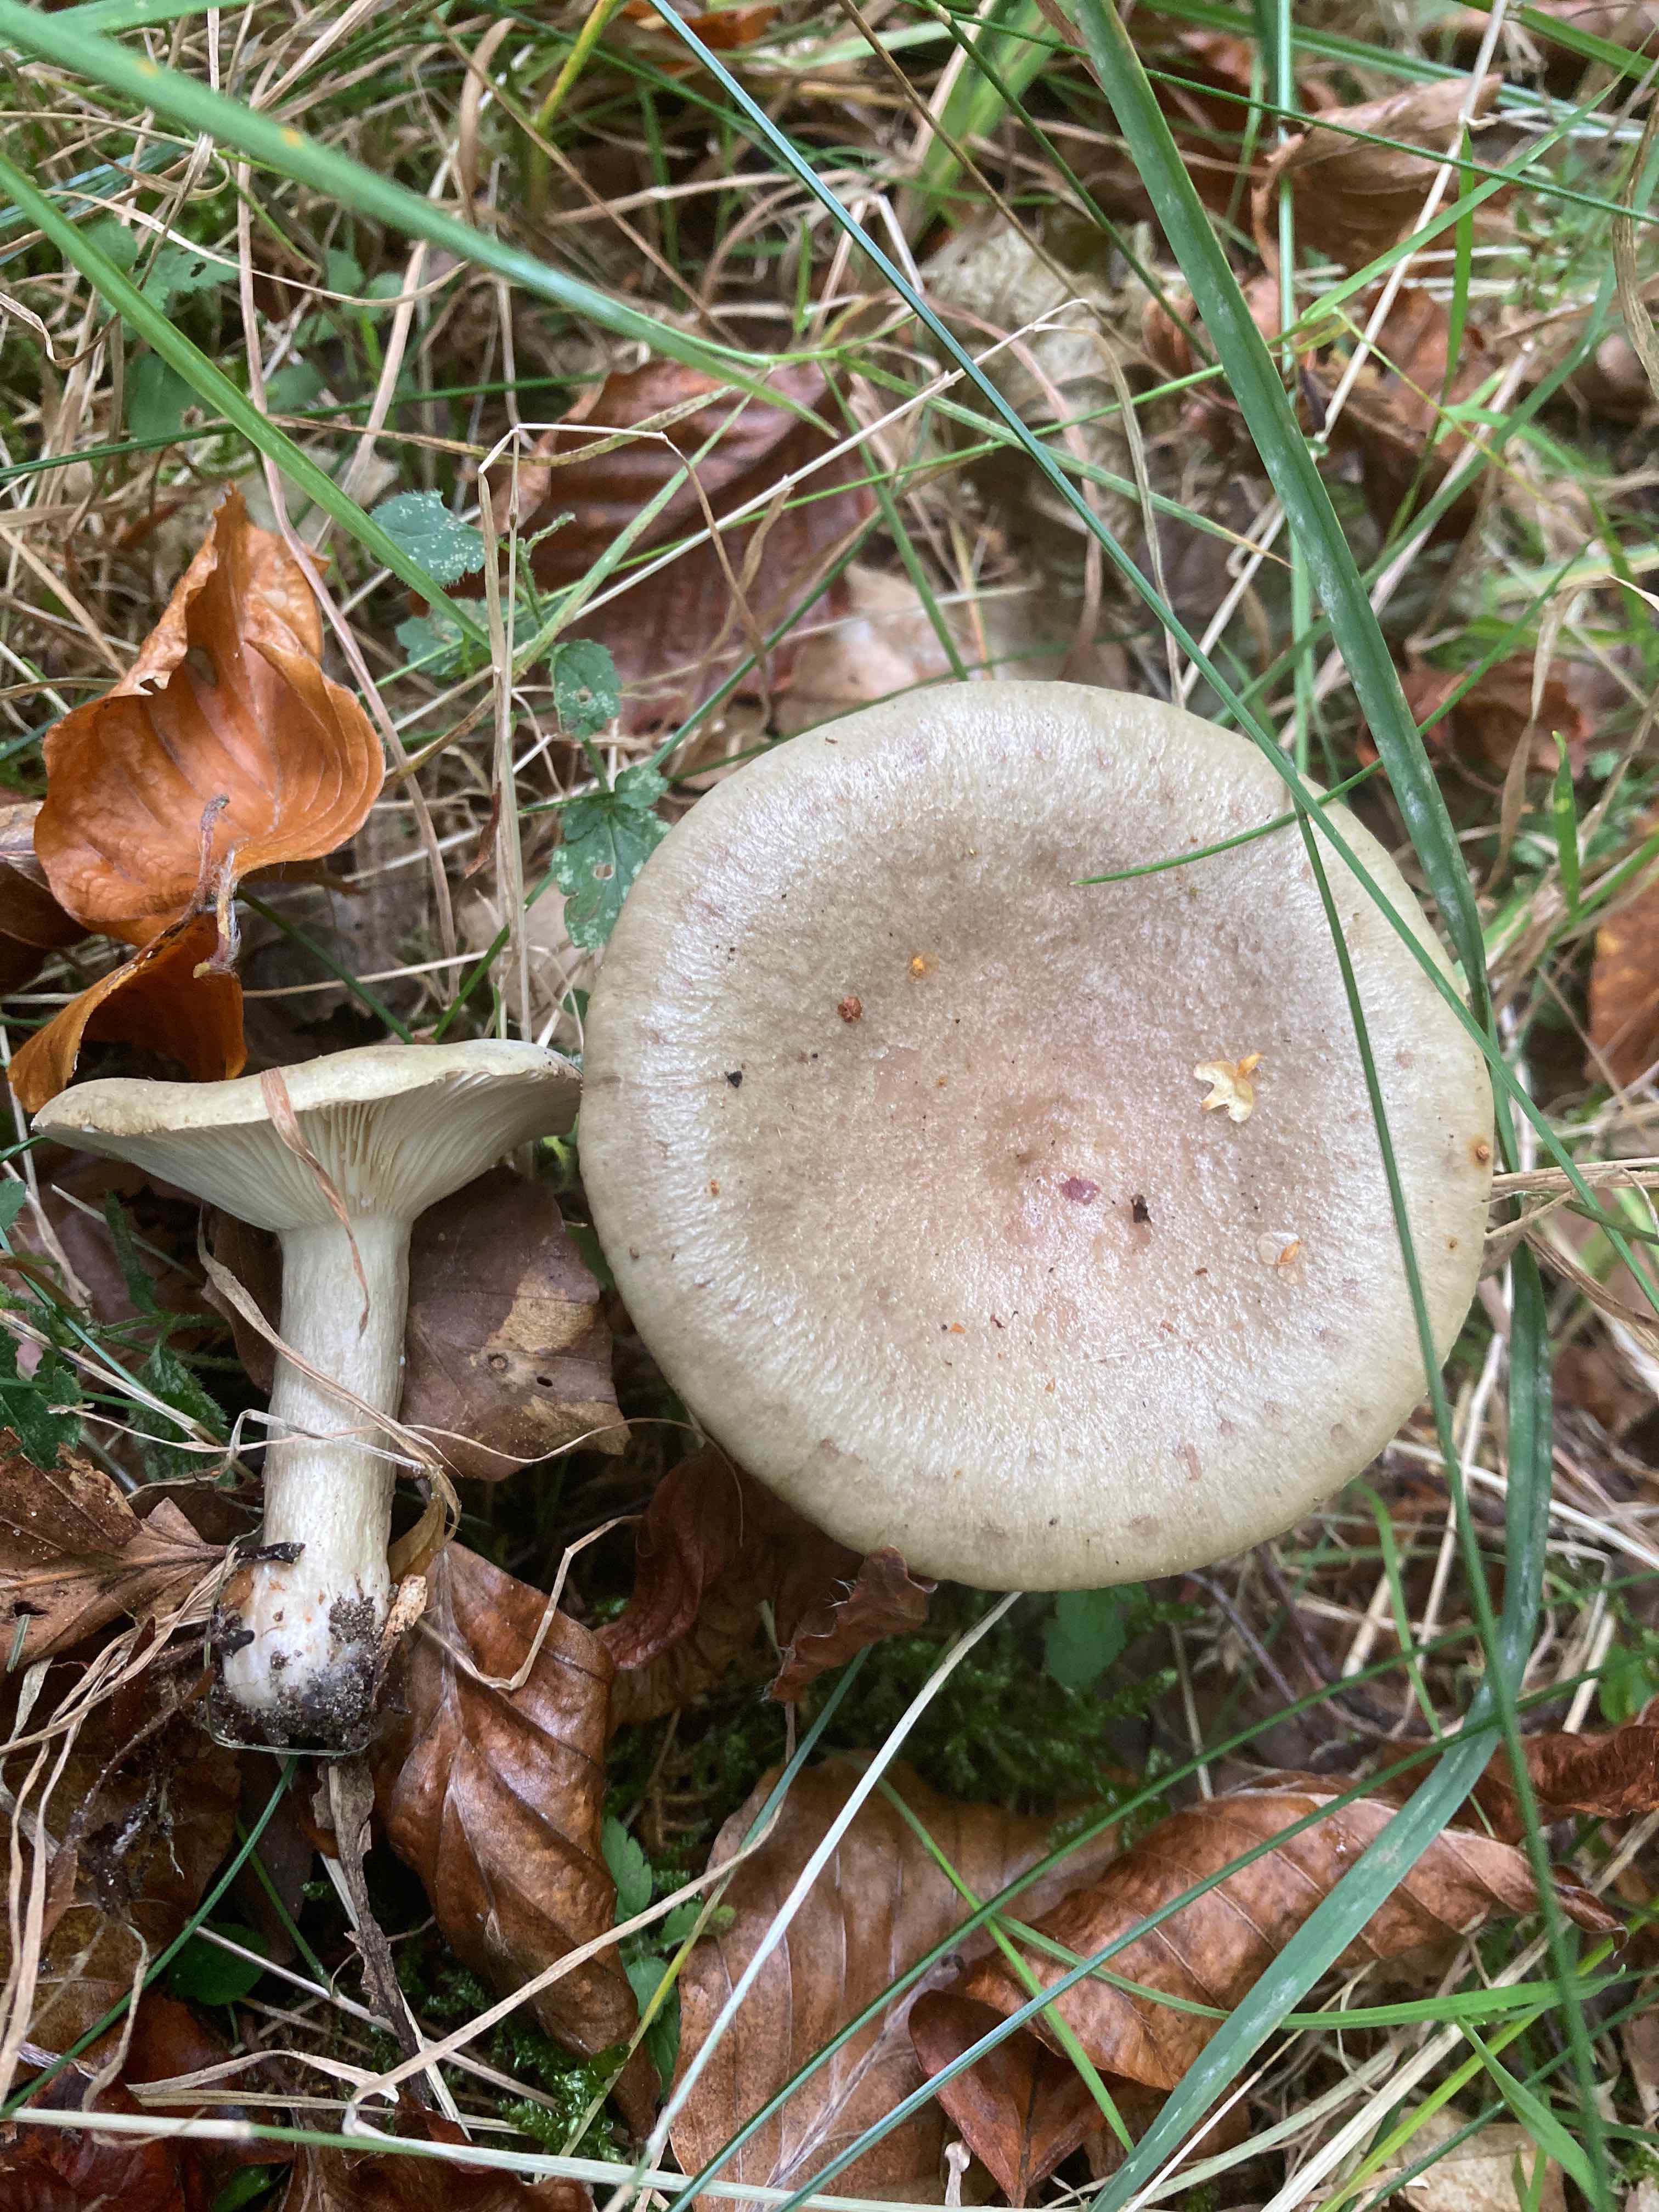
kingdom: Fungi
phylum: Basidiomycota
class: Agaricomycetes
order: Russulales
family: Russulaceae
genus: Lactarius
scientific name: Lactarius blennius
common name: dråbeplettet mælkehat
